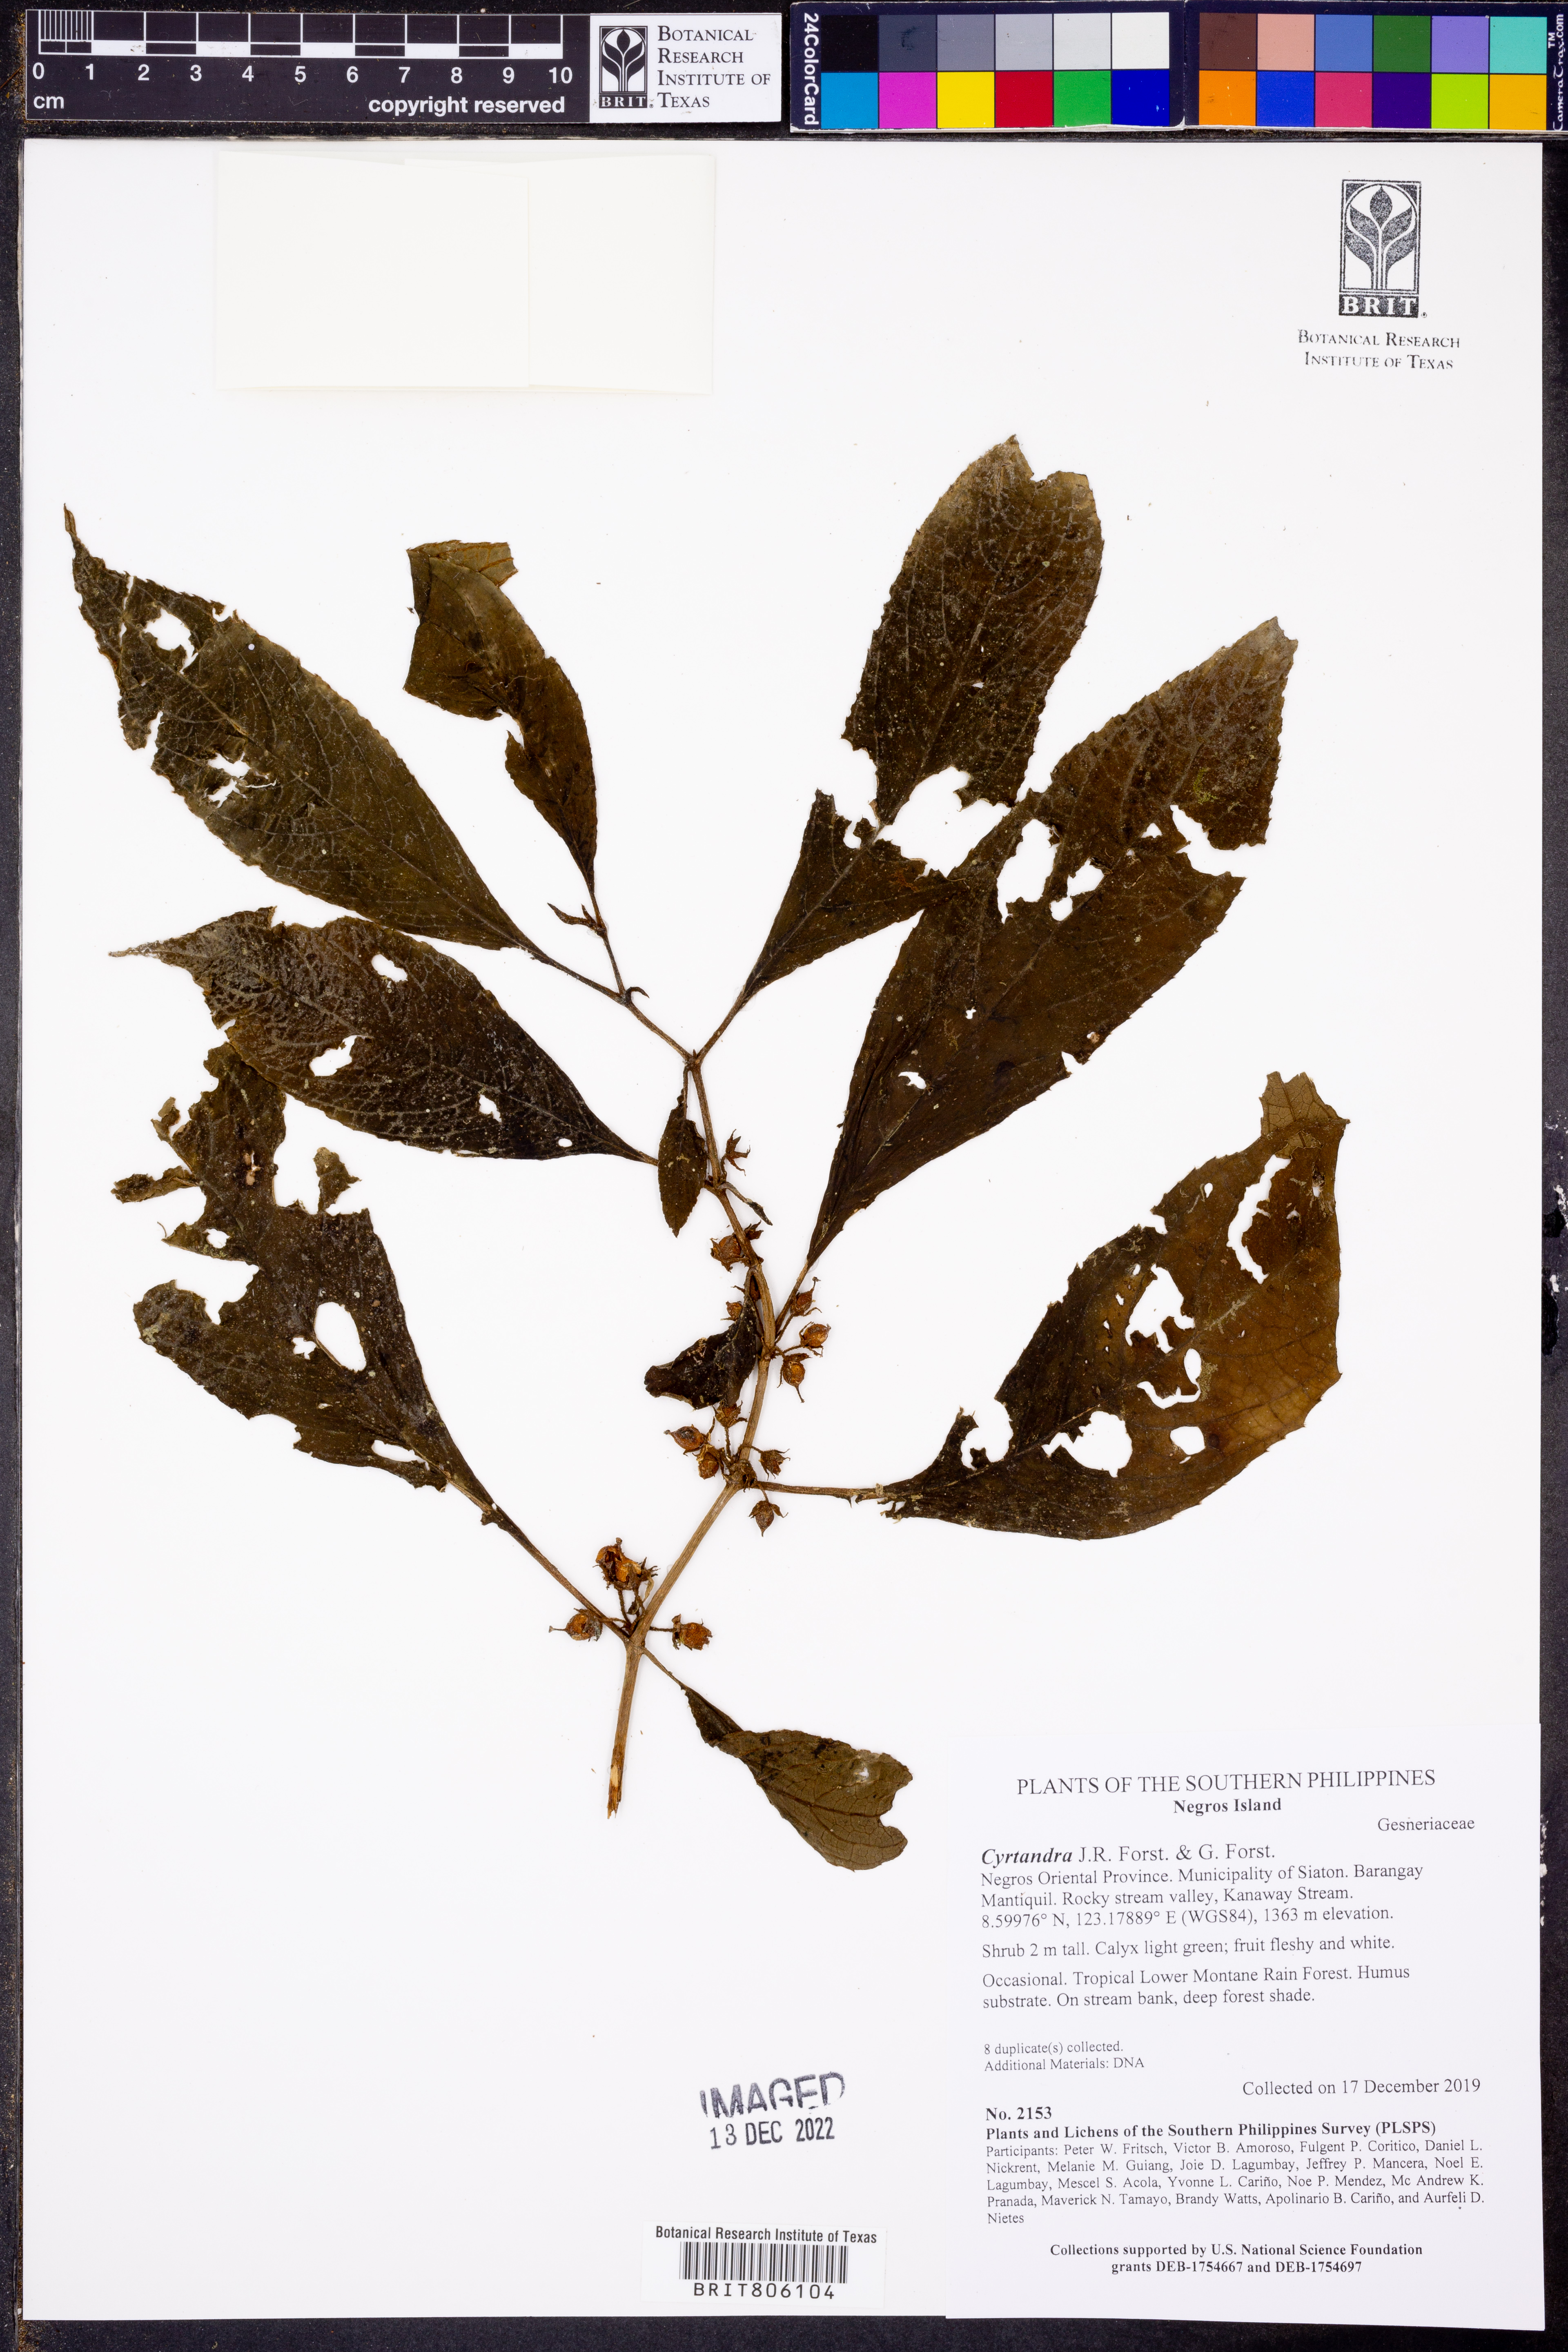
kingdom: Plantae
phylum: Tracheophyta
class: Magnoliopsida
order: Lamiales
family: Gesneriaceae
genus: Cyrtandra
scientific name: Cyrtandra
